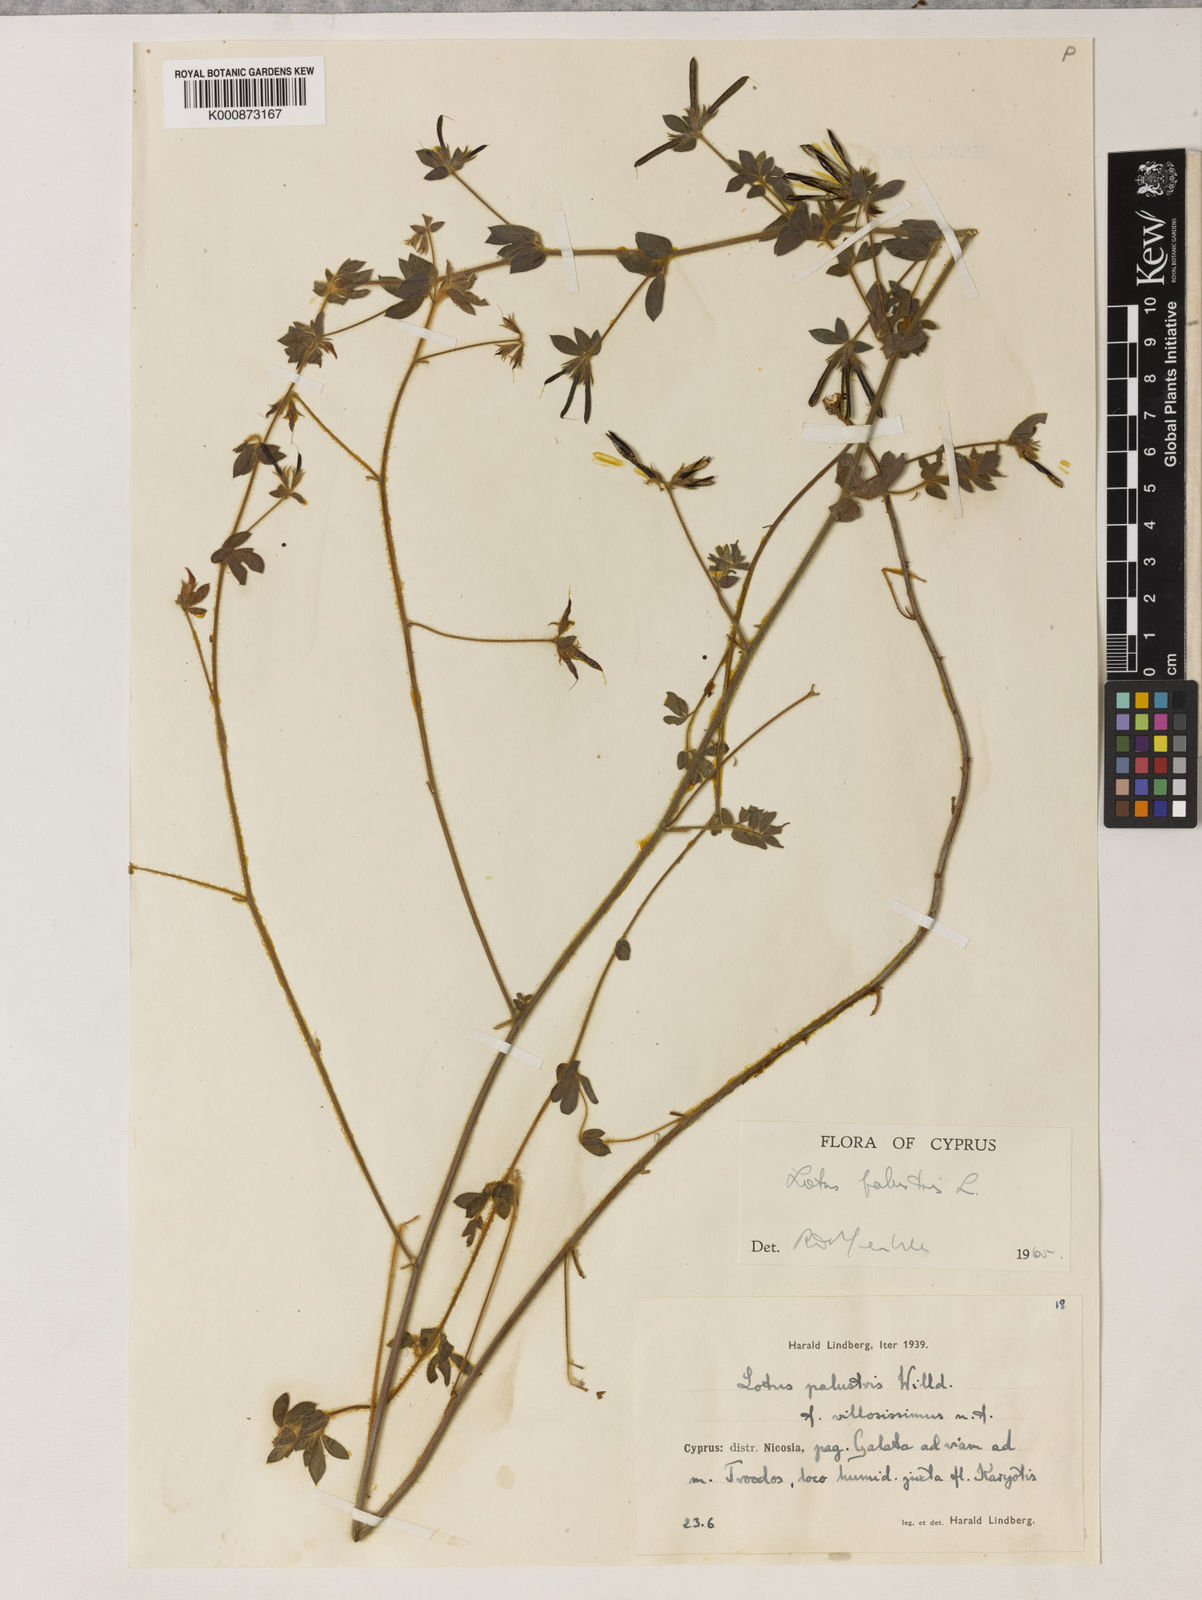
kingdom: Plantae
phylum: Tracheophyta
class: Magnoliopsida
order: Fabales
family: Fabaceae
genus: Lotus
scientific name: Lotus palustris
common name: Large birds-foot trefoil
